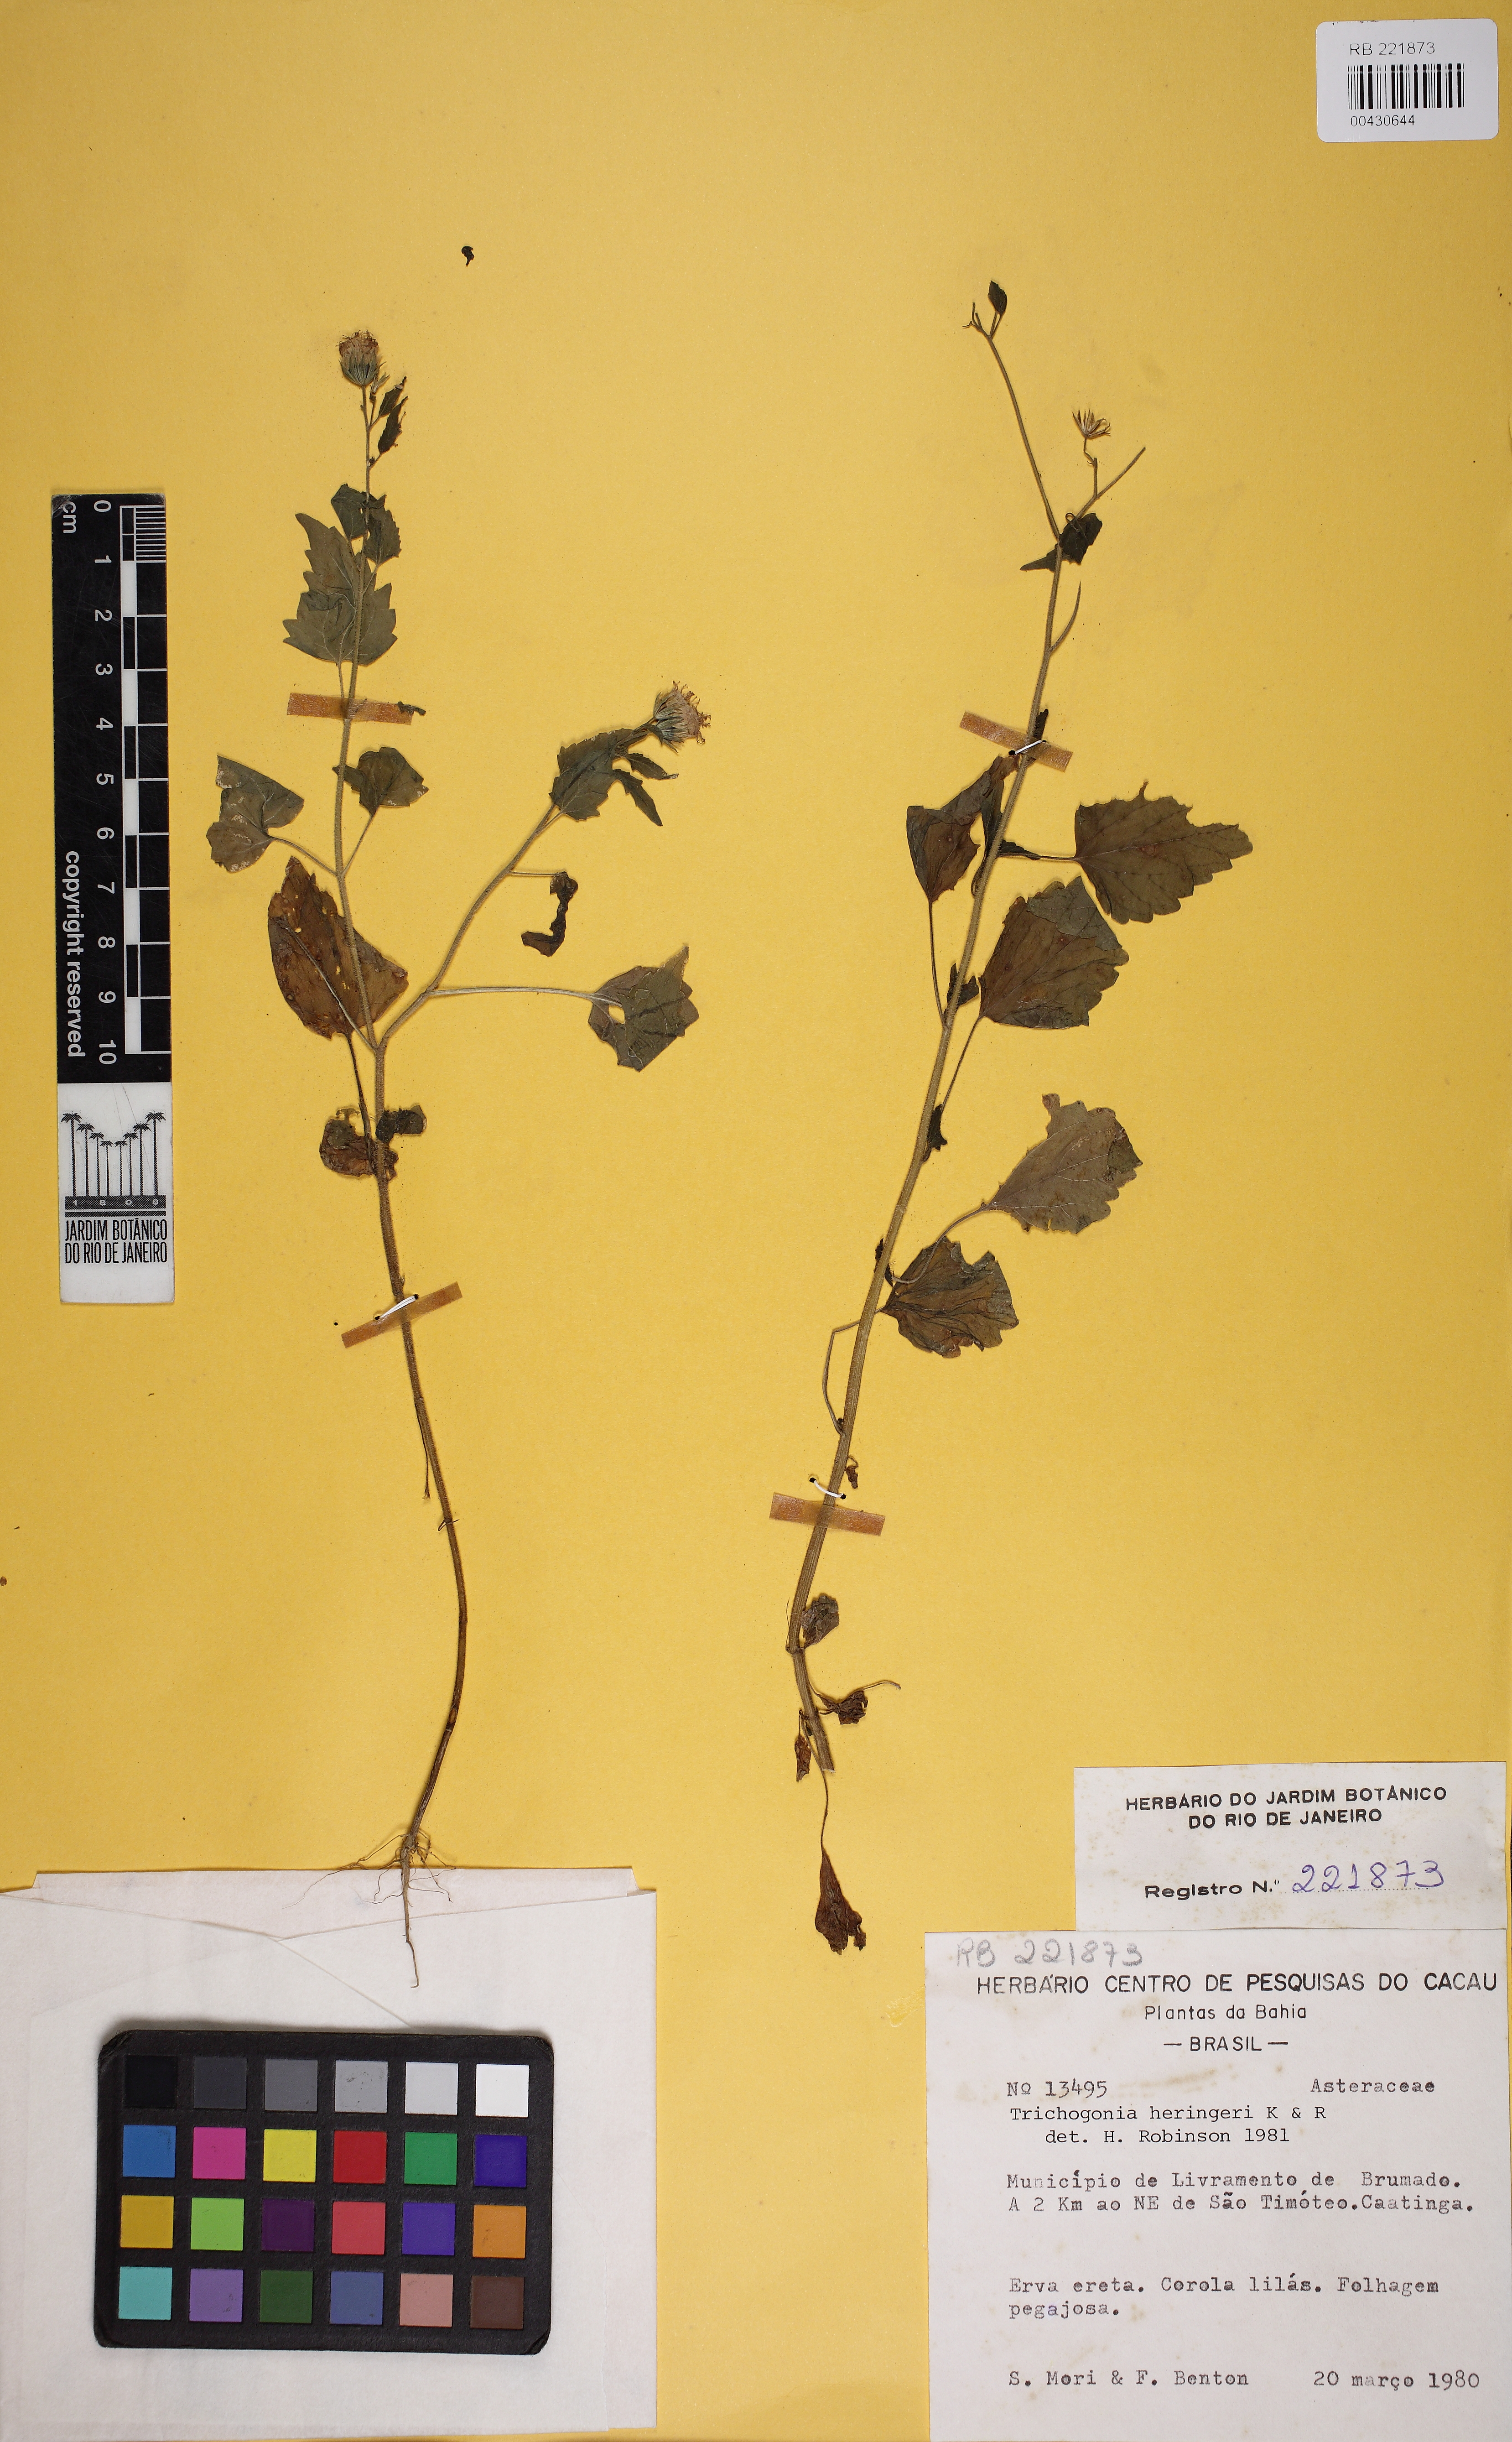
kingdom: Plantae
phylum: Tracheophyta
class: Magnoliopsida
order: Asterales
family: Asteraceae
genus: Trichogonia
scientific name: Trichogonia heringeri
